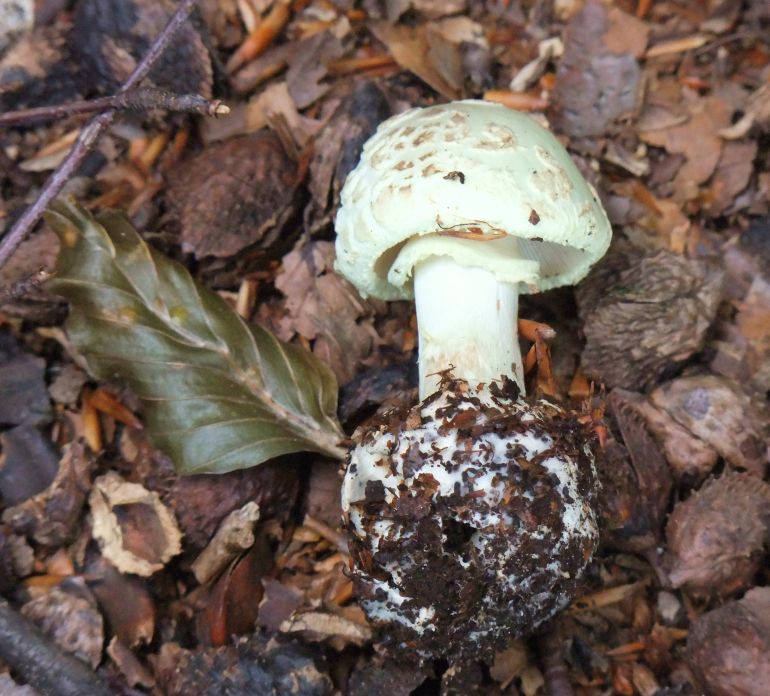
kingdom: Fungi
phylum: Basidiomycota
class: Agaricomycetes
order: Agaricales
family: Amanitaceae
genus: Amanita
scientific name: Amanita citrina
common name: kugleknoldet fluesvamp
